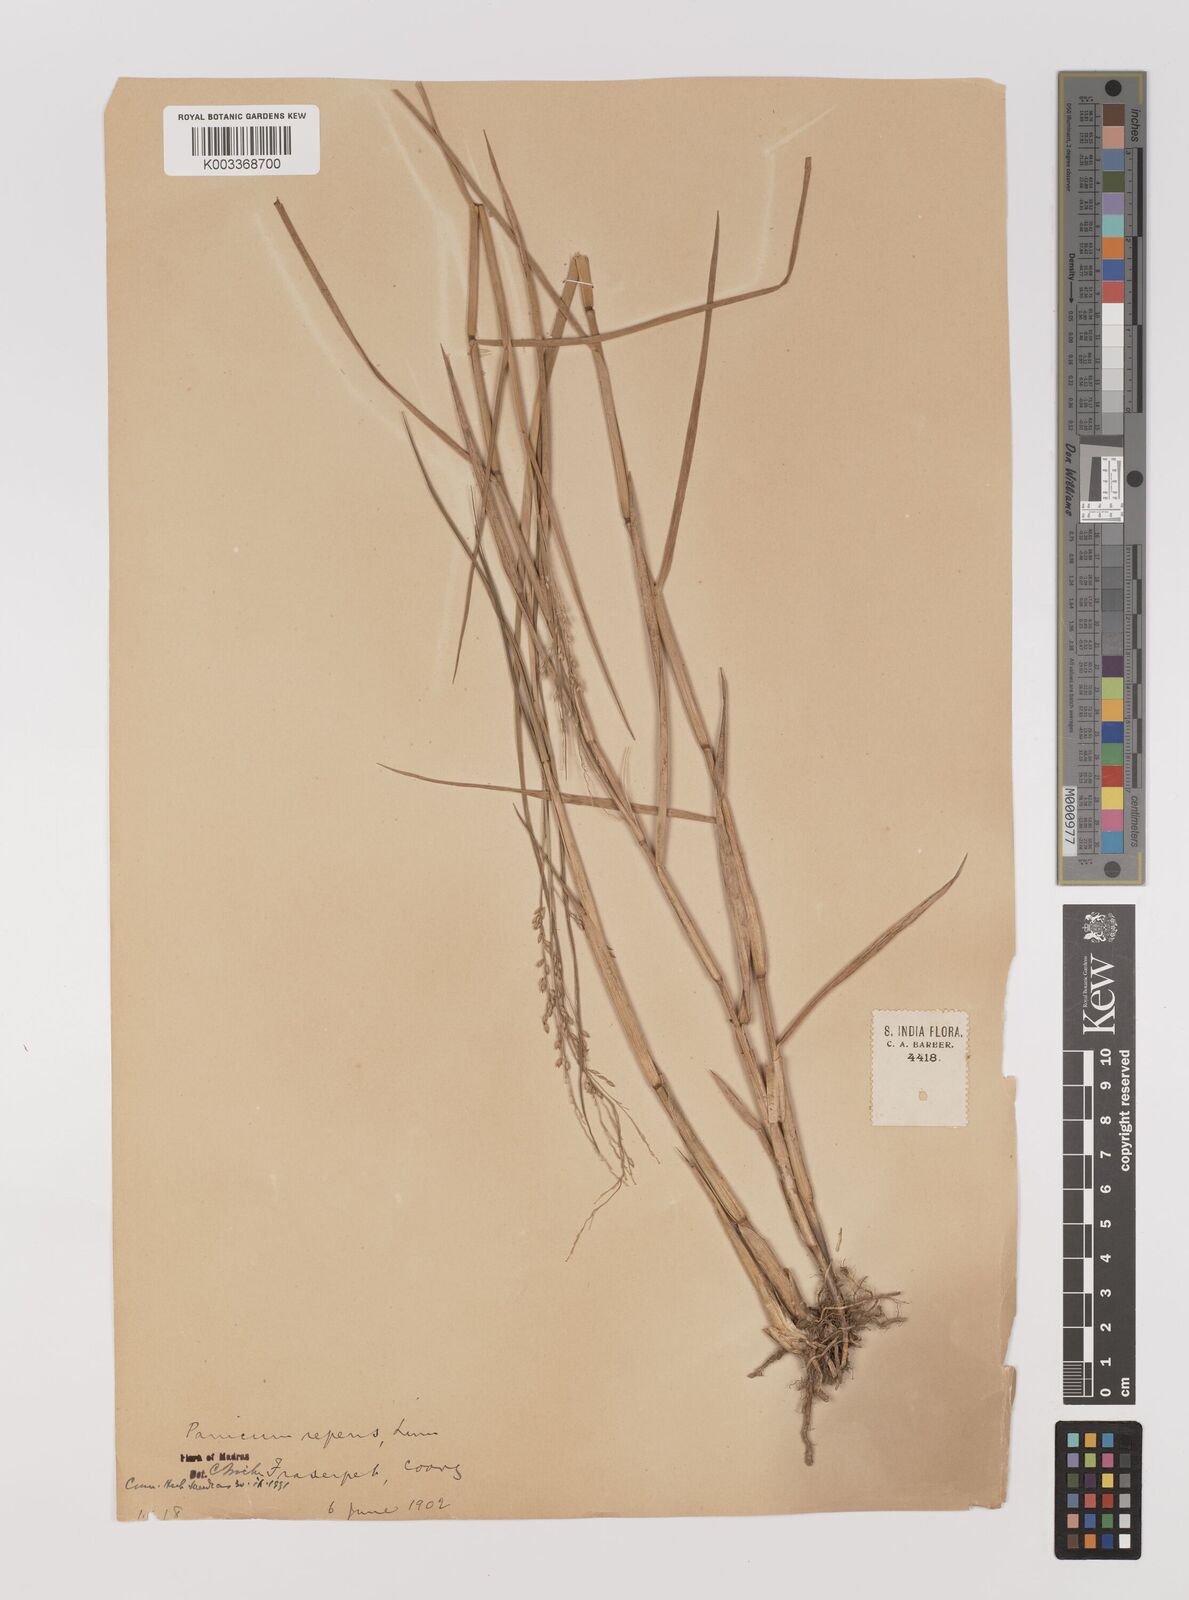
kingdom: Plantae
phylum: Tracheophyta
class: Liliopsida
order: Poales
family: Poaceae
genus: Panicum
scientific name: Panicum repens
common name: Torpedo grass
